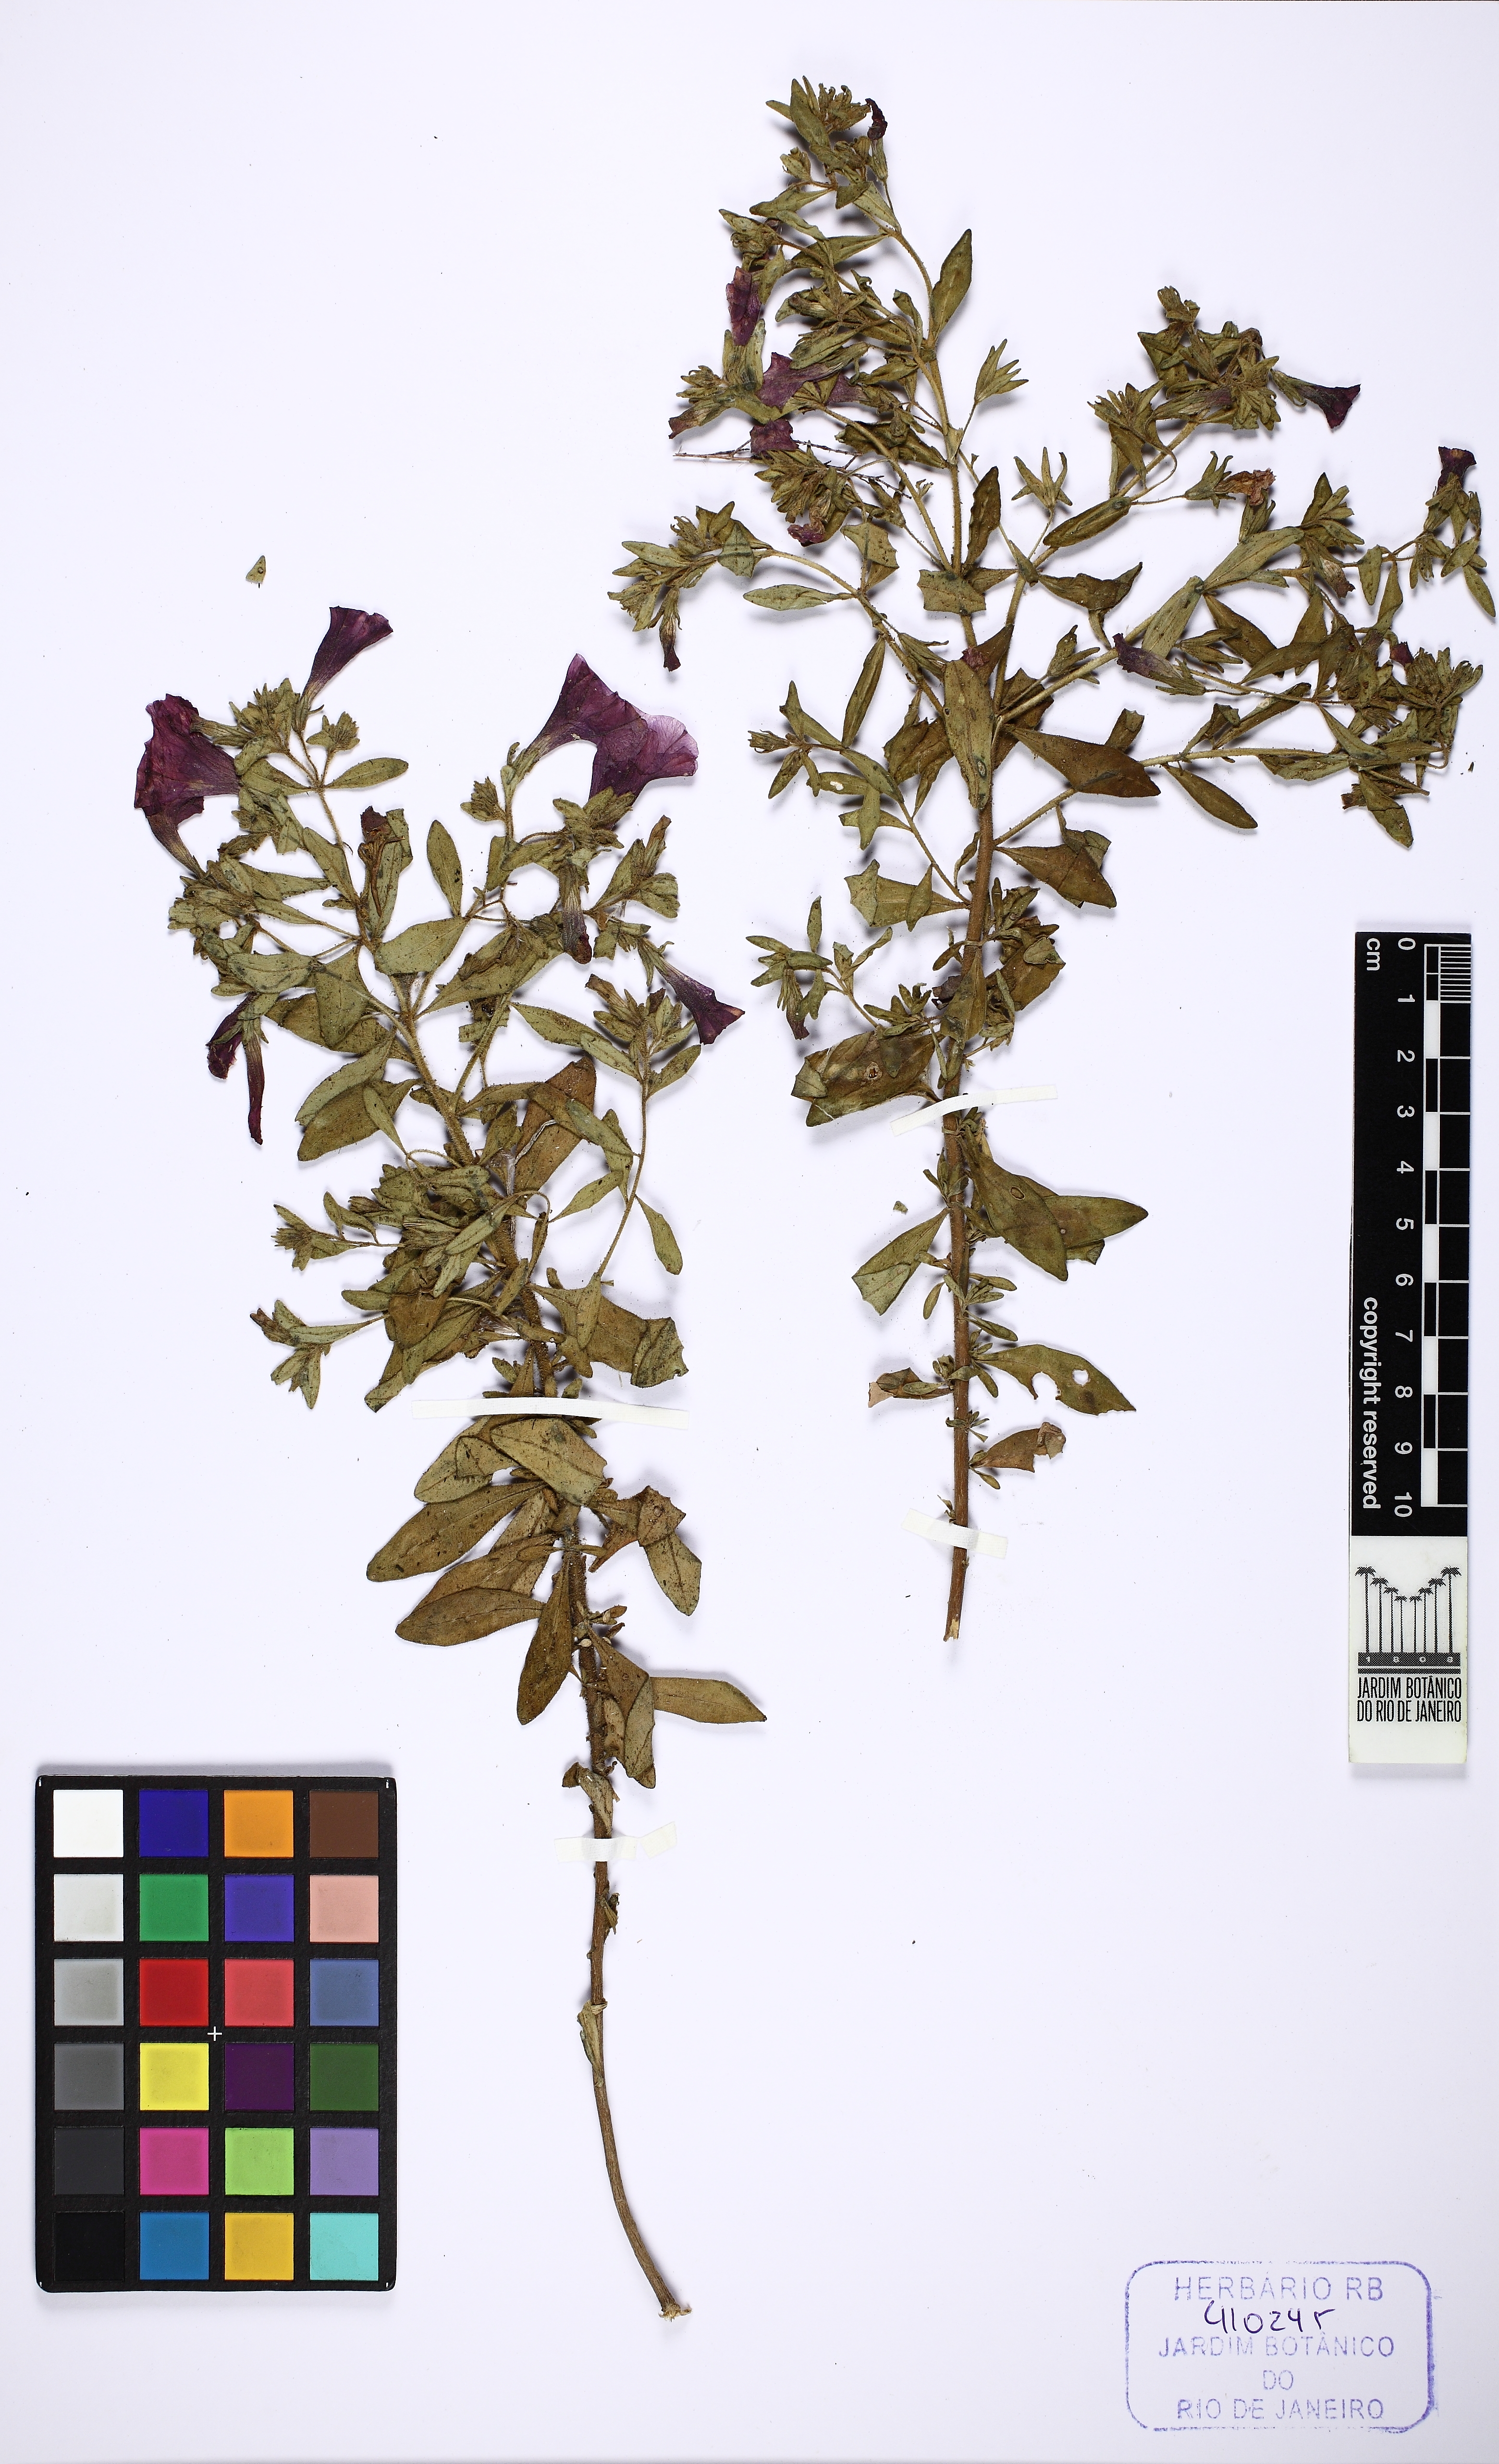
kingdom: Plantae
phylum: Tracheophyta
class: Magnoliopsida
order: Solanales
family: Solanaceae
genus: Calibrachoa
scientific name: Calibrachoa excellens
